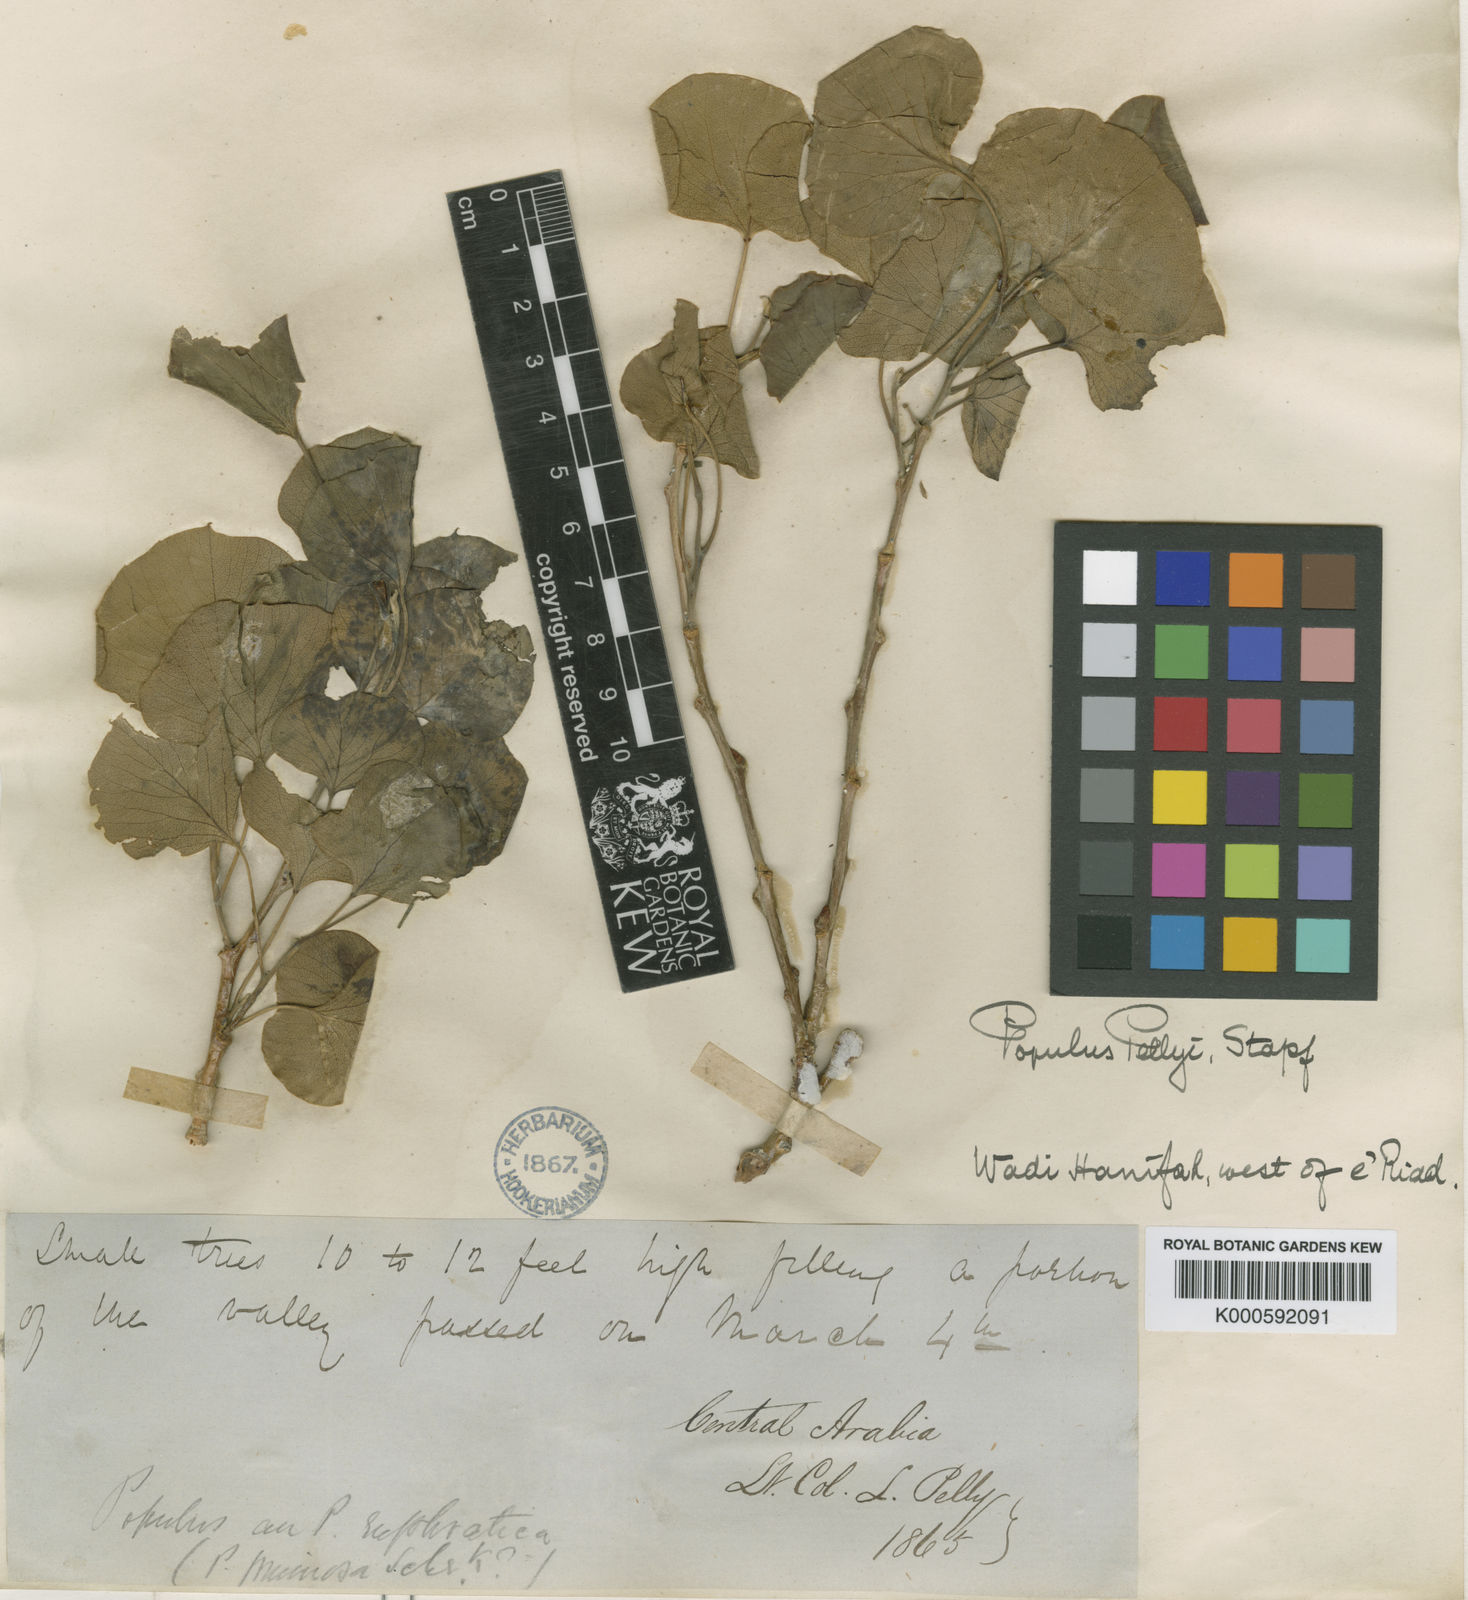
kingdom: Plantae
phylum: Tracheophyta
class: Magnoliopsida
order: Malpighiales
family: Salicaceae
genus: Populus
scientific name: Populus euphratica
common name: Euphrates poplar
